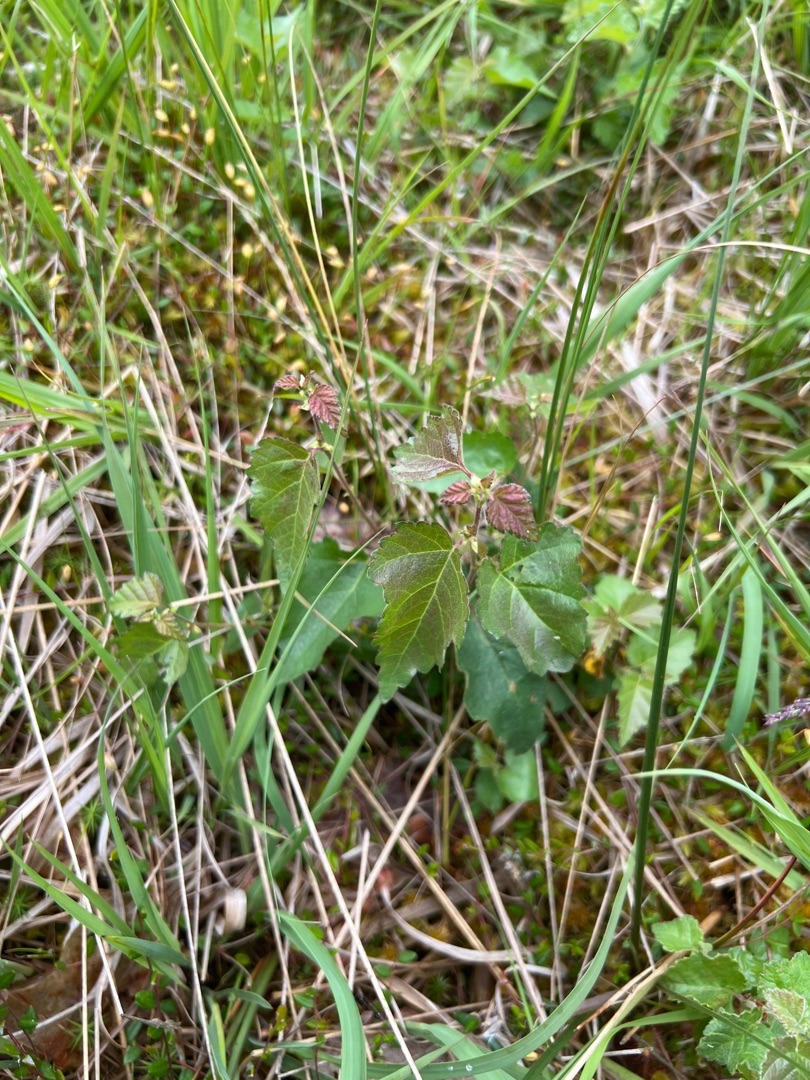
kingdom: Plantae
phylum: Tracheophyta
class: Magnoliopsida
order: Fagales
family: Betulaceae
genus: Betula
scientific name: Betula pubescens
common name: Dun-birk
